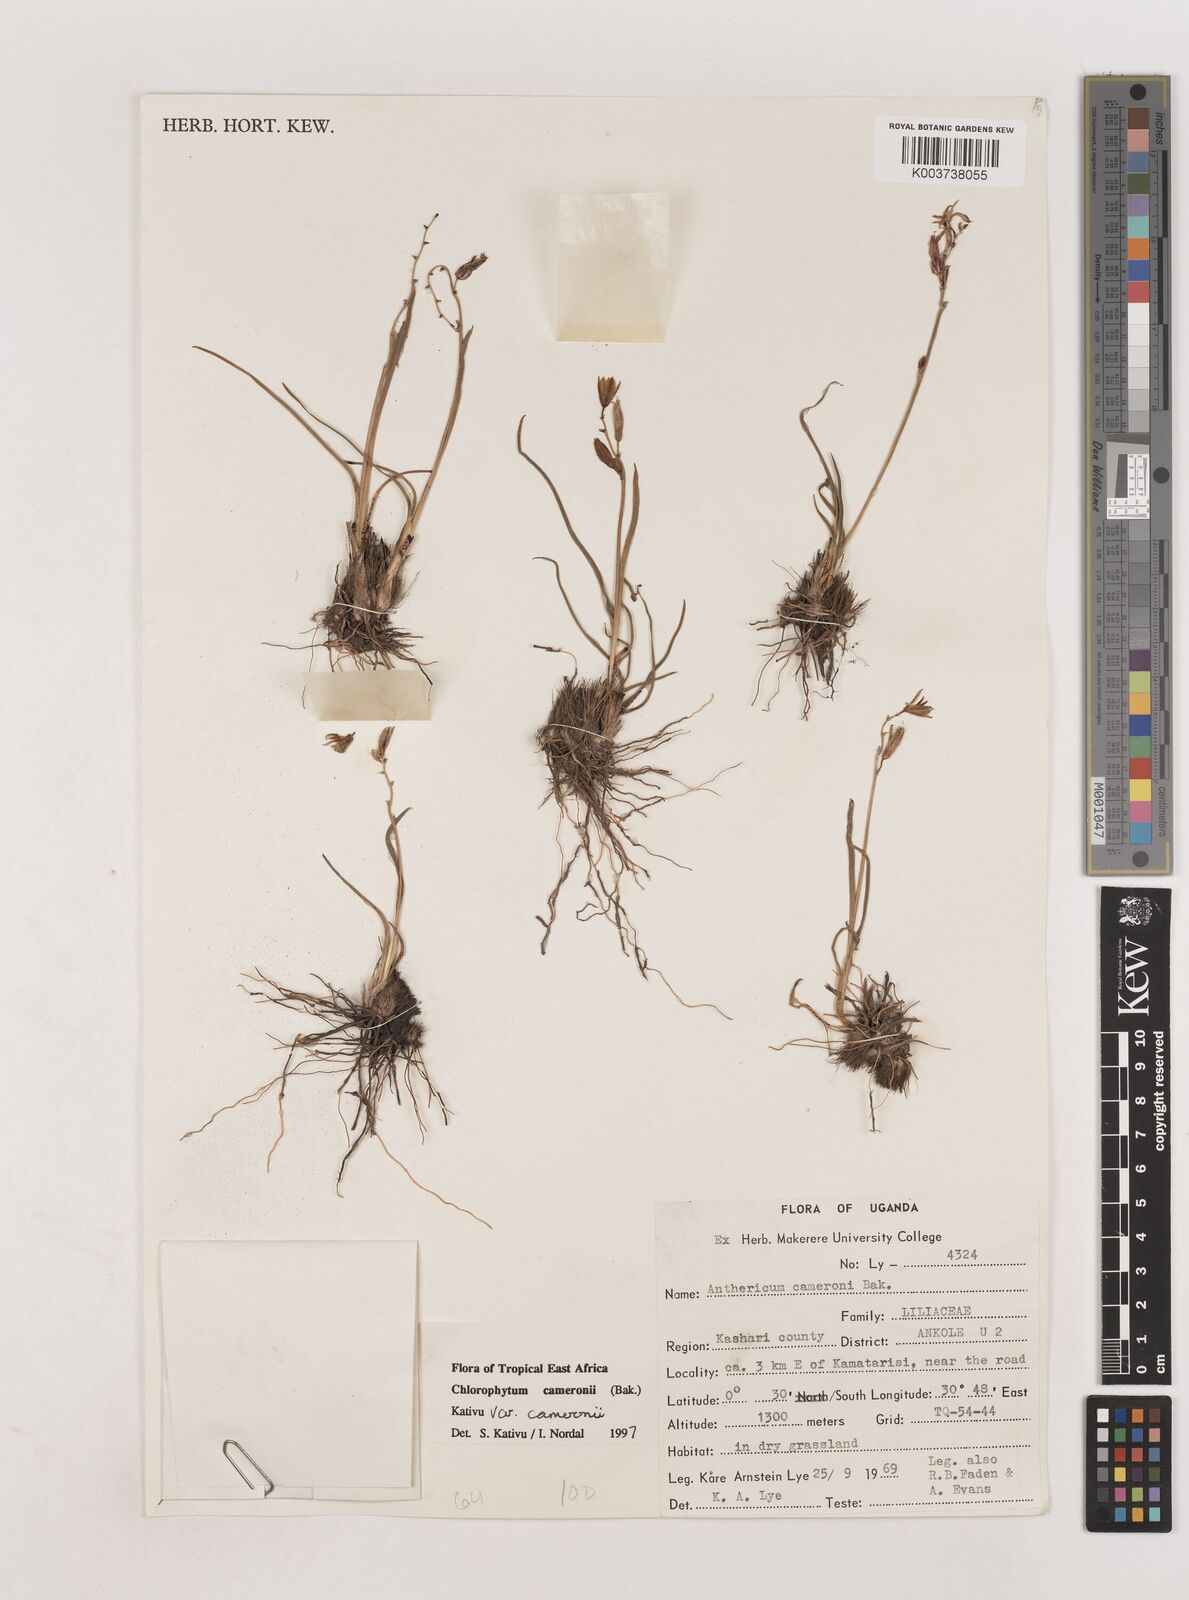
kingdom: Plantae
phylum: Tracheophyta
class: Liliopsida
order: Asparagales
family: Asparagaceae
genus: Chlorophytum
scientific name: Chlorophytum cameronii
